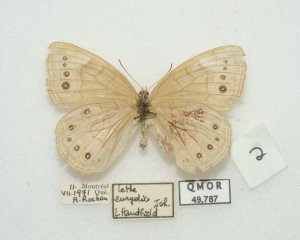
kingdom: Animalia
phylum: Arthropoda
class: Insecta
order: Lepidoptera
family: Nymphalidae
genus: Lethe
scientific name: Lethe eurydice
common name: Eyed Brown
